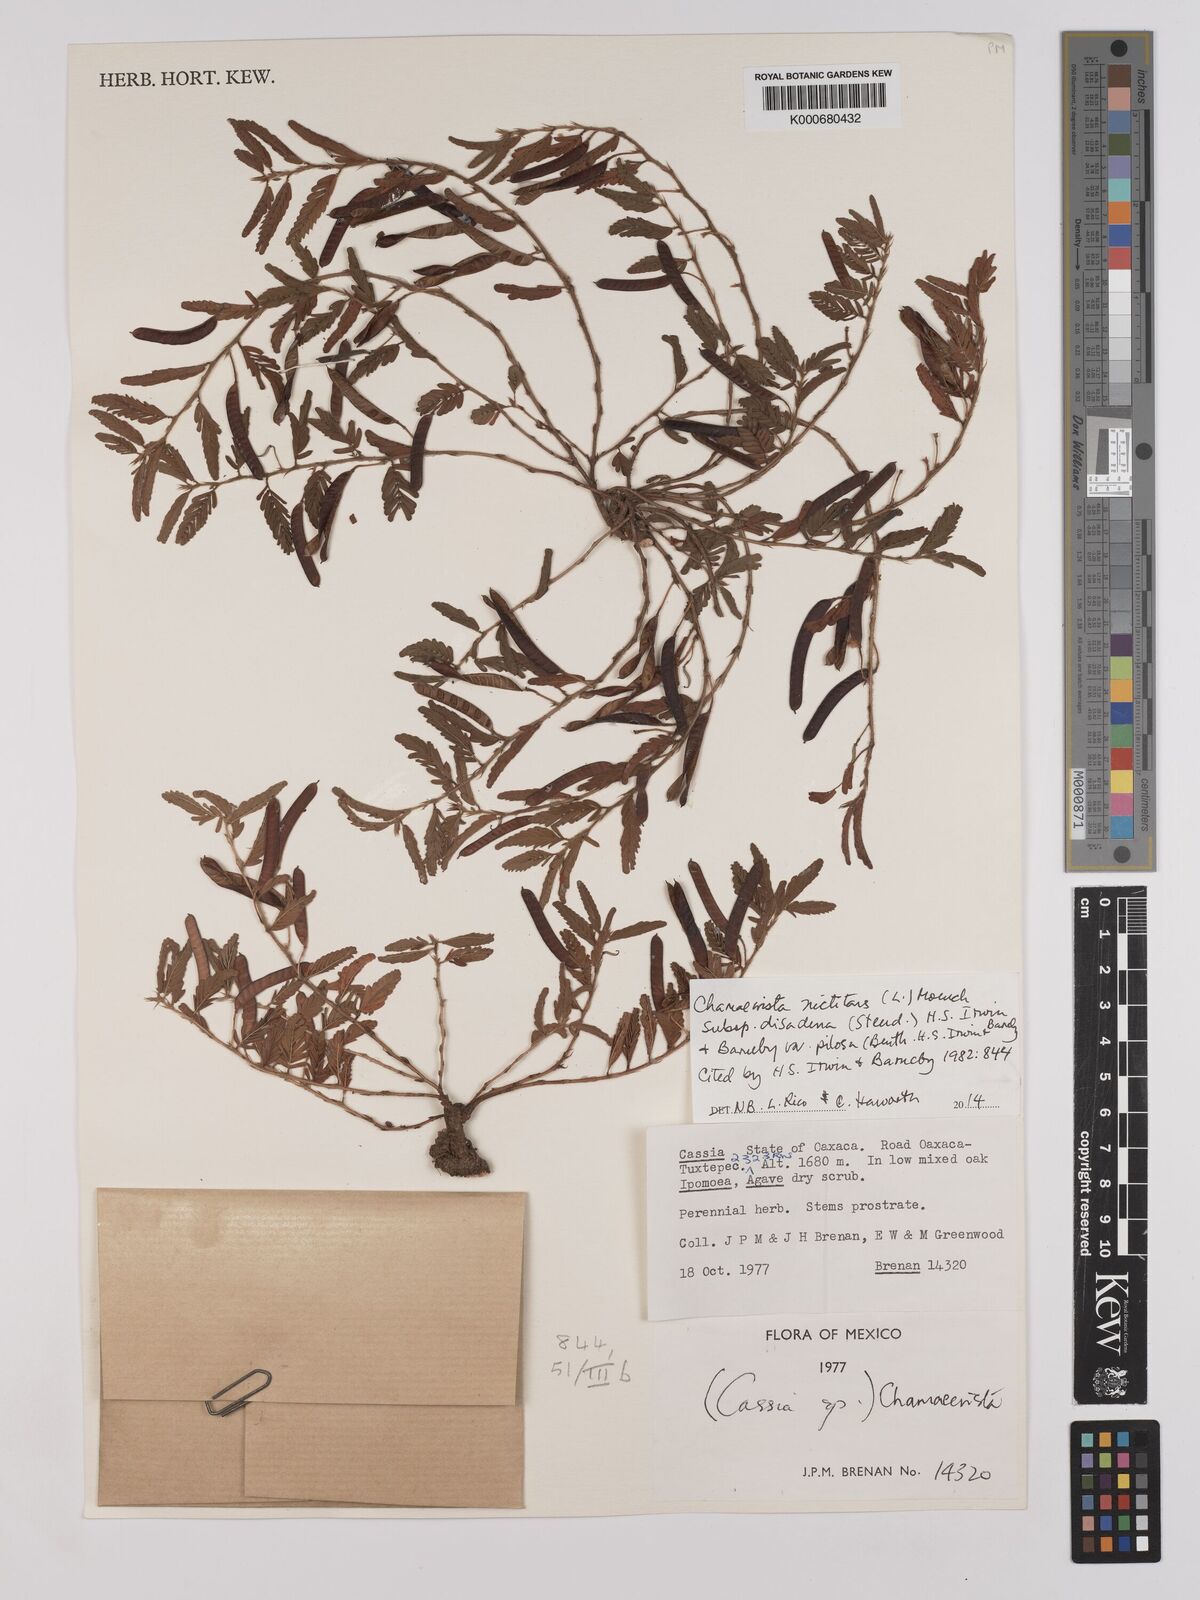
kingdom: Plantae
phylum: Tracheophyta
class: Magnoliopsida
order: Fabales
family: Fabaceae
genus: Chamaecrista
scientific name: Chamaecrista nictitans
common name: Sensitive cassia
